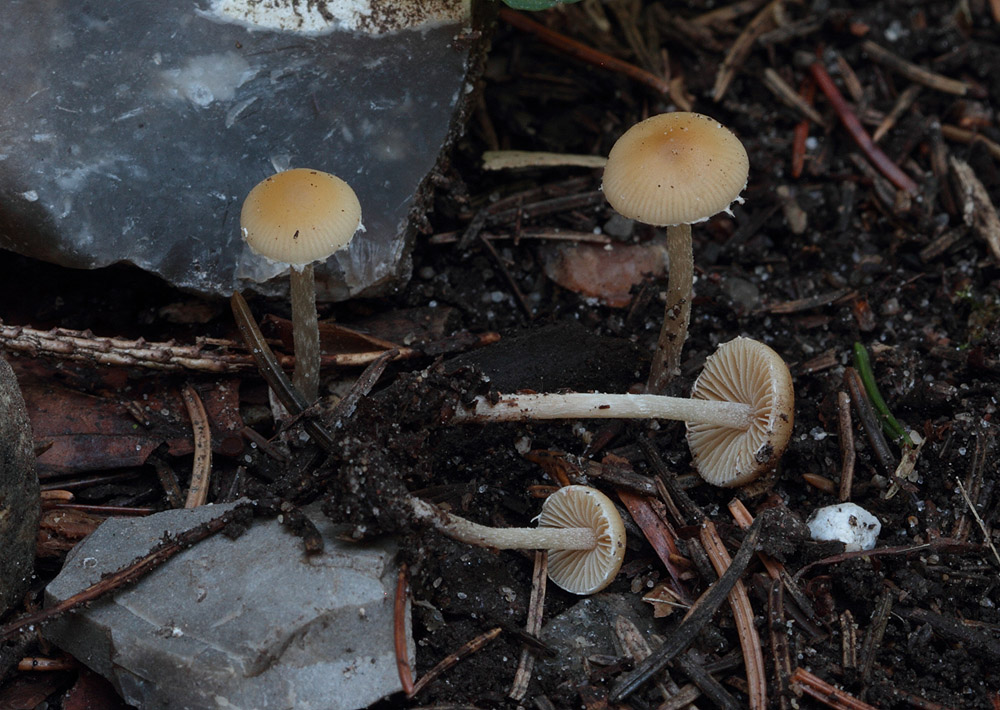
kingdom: Fungi
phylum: Basidiomycota
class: Agaricomycetes
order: Agaricales
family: Bolbitiaceae
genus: Conocybe
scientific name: Conocybe exannulata
